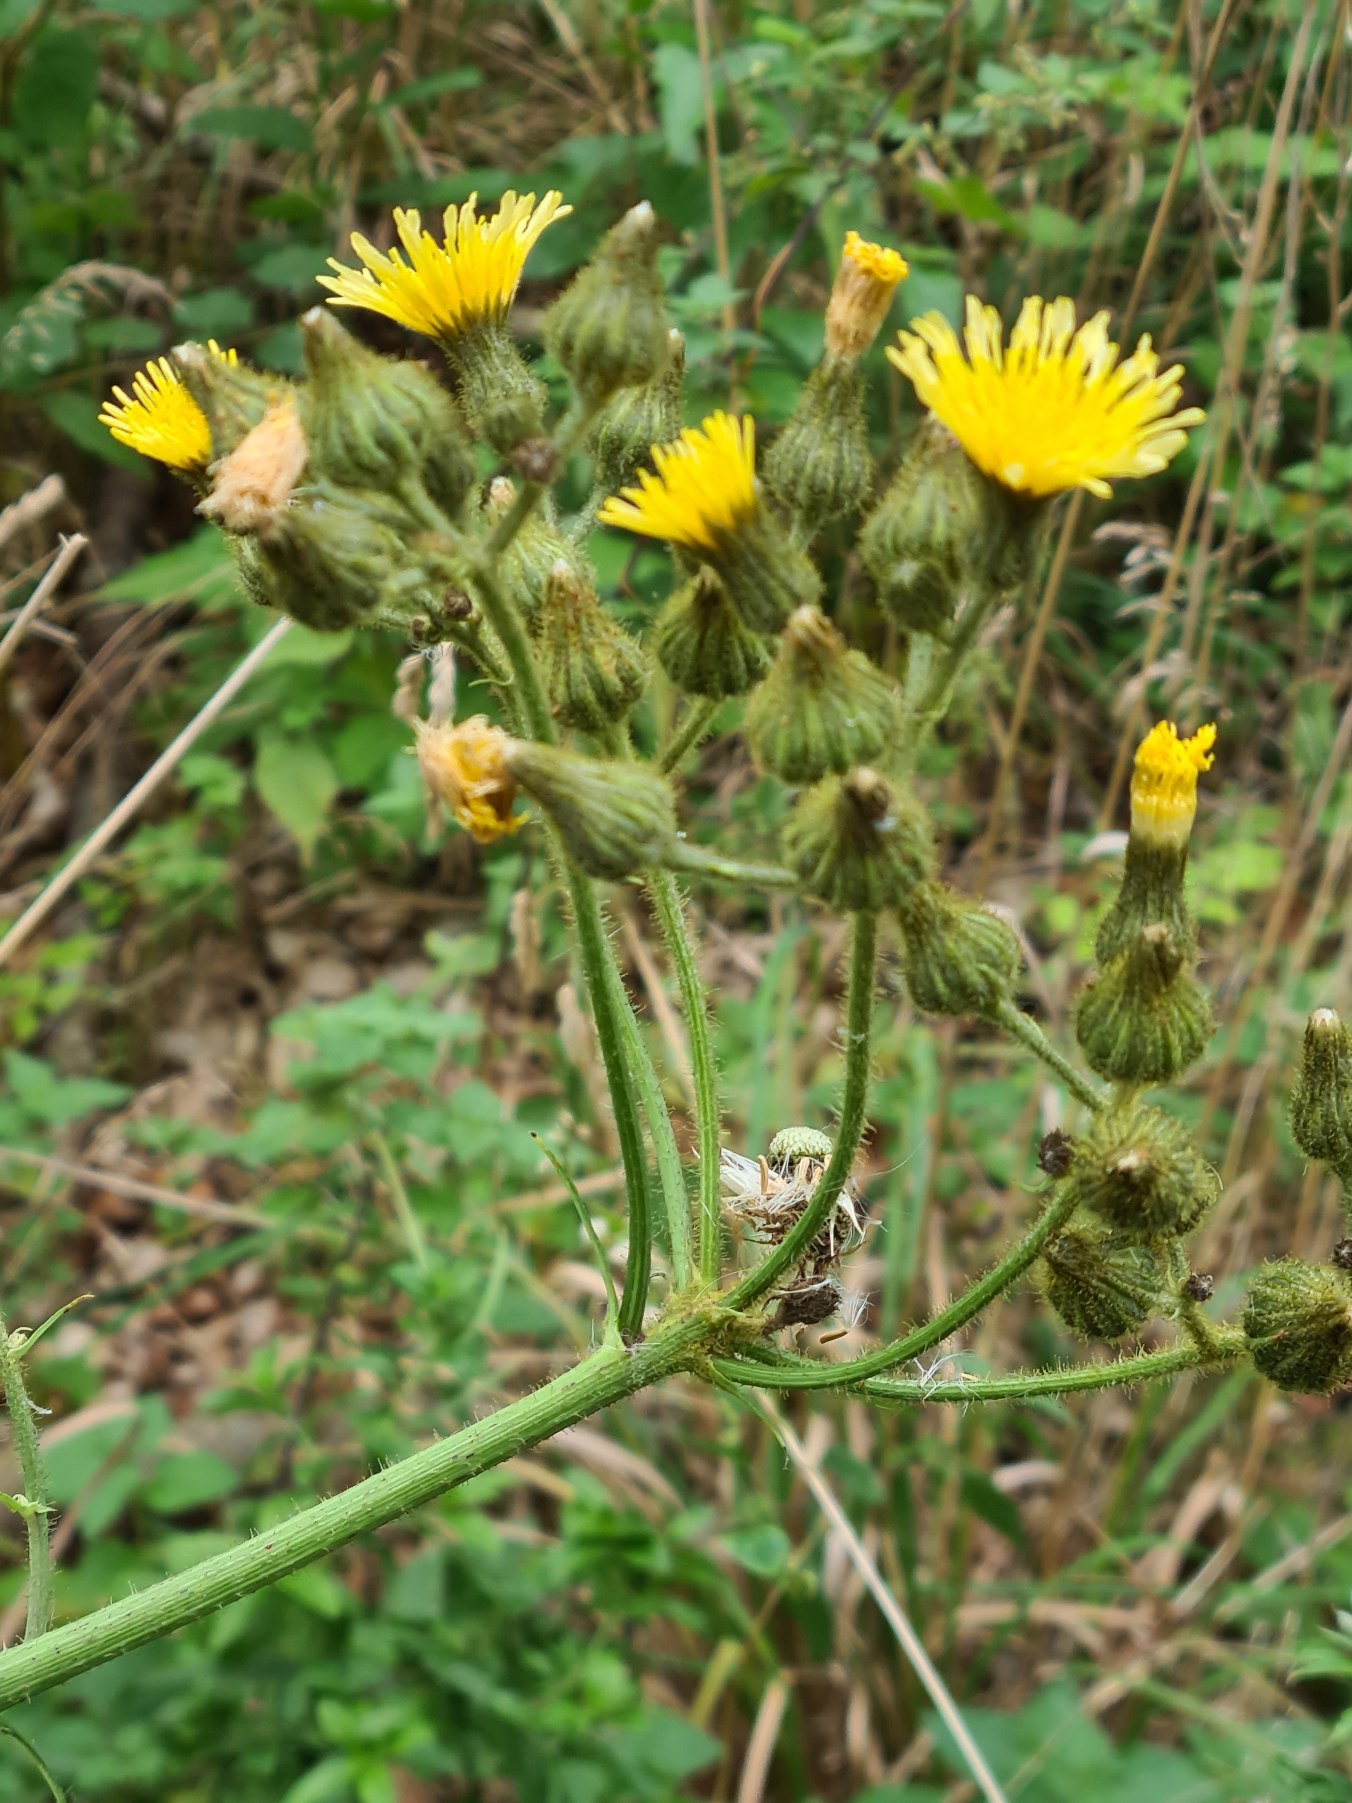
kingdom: Plantae
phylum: Tracheophyta
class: Magnoliopsida
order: Asterales
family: Asteraceae
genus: Sonchus
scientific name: Sonchus palustris
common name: Kær-svinemælk
